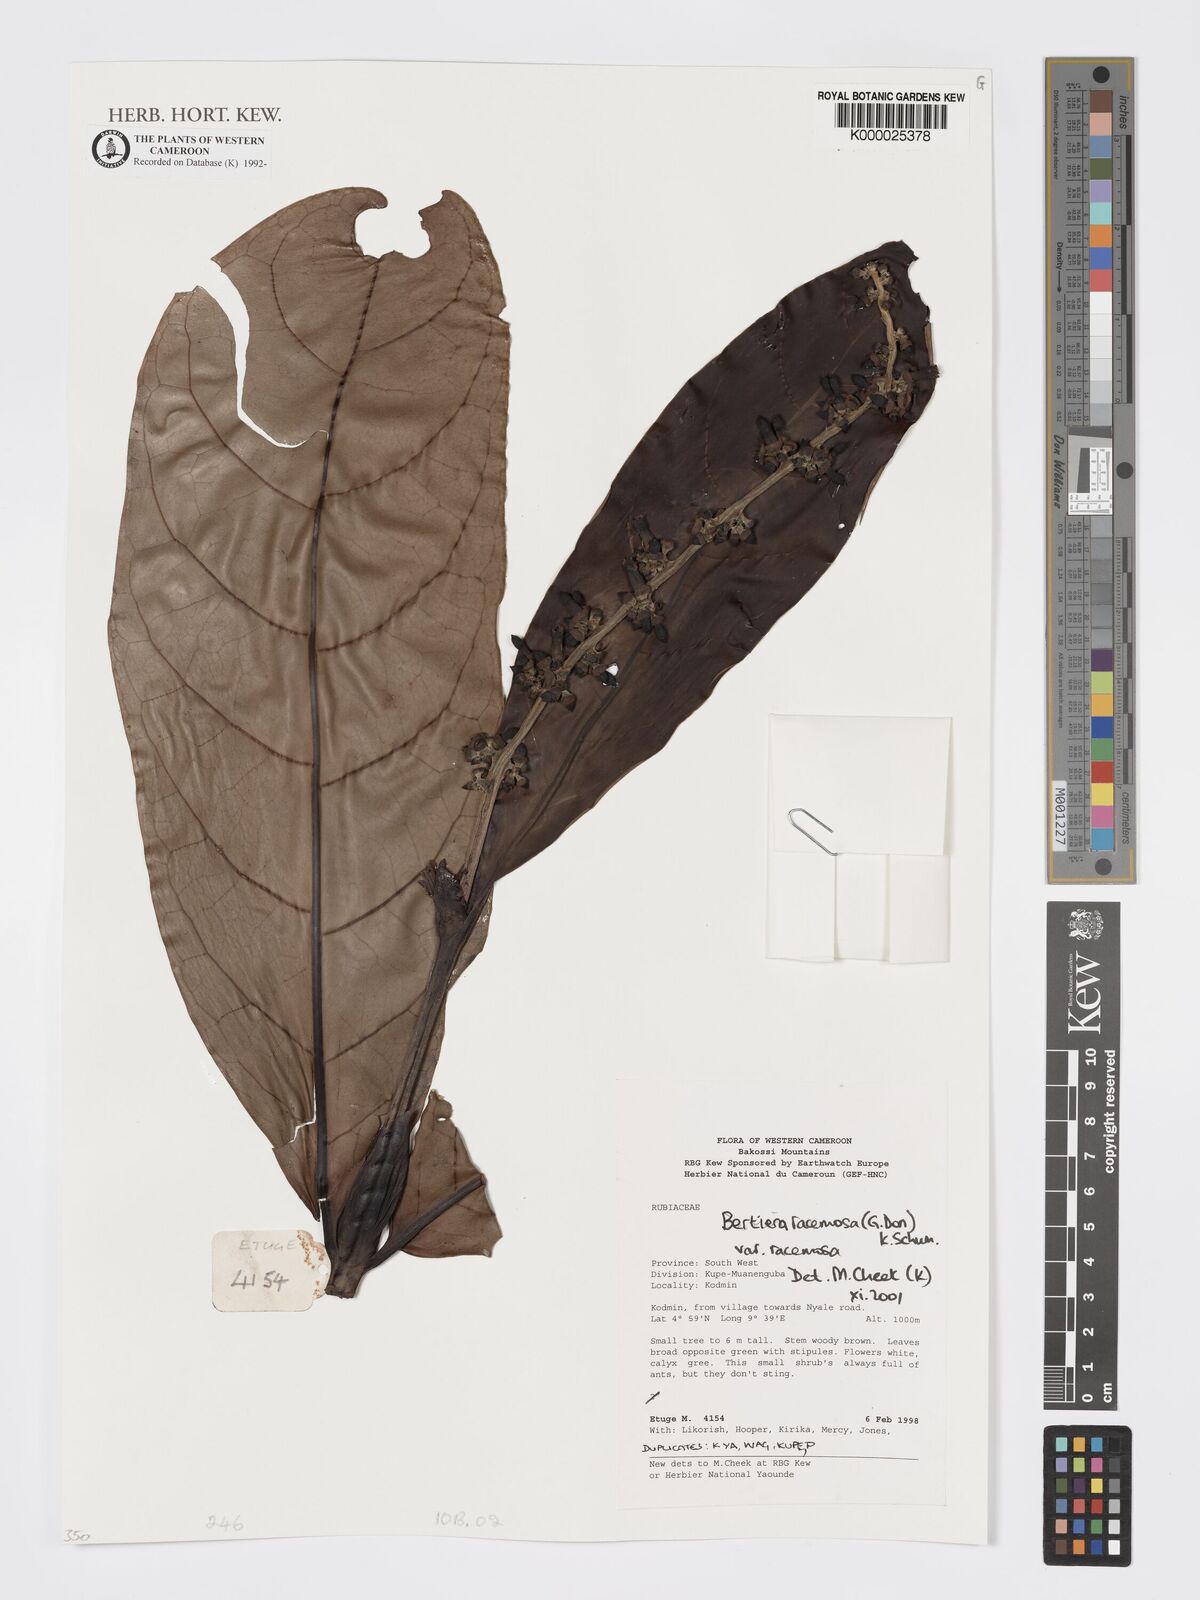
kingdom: Plantae
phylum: Tracheophyta
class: Magnoliopsida
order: Gentianales
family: Rubiaceae
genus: Bertiera
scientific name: Bertiera racemosa
